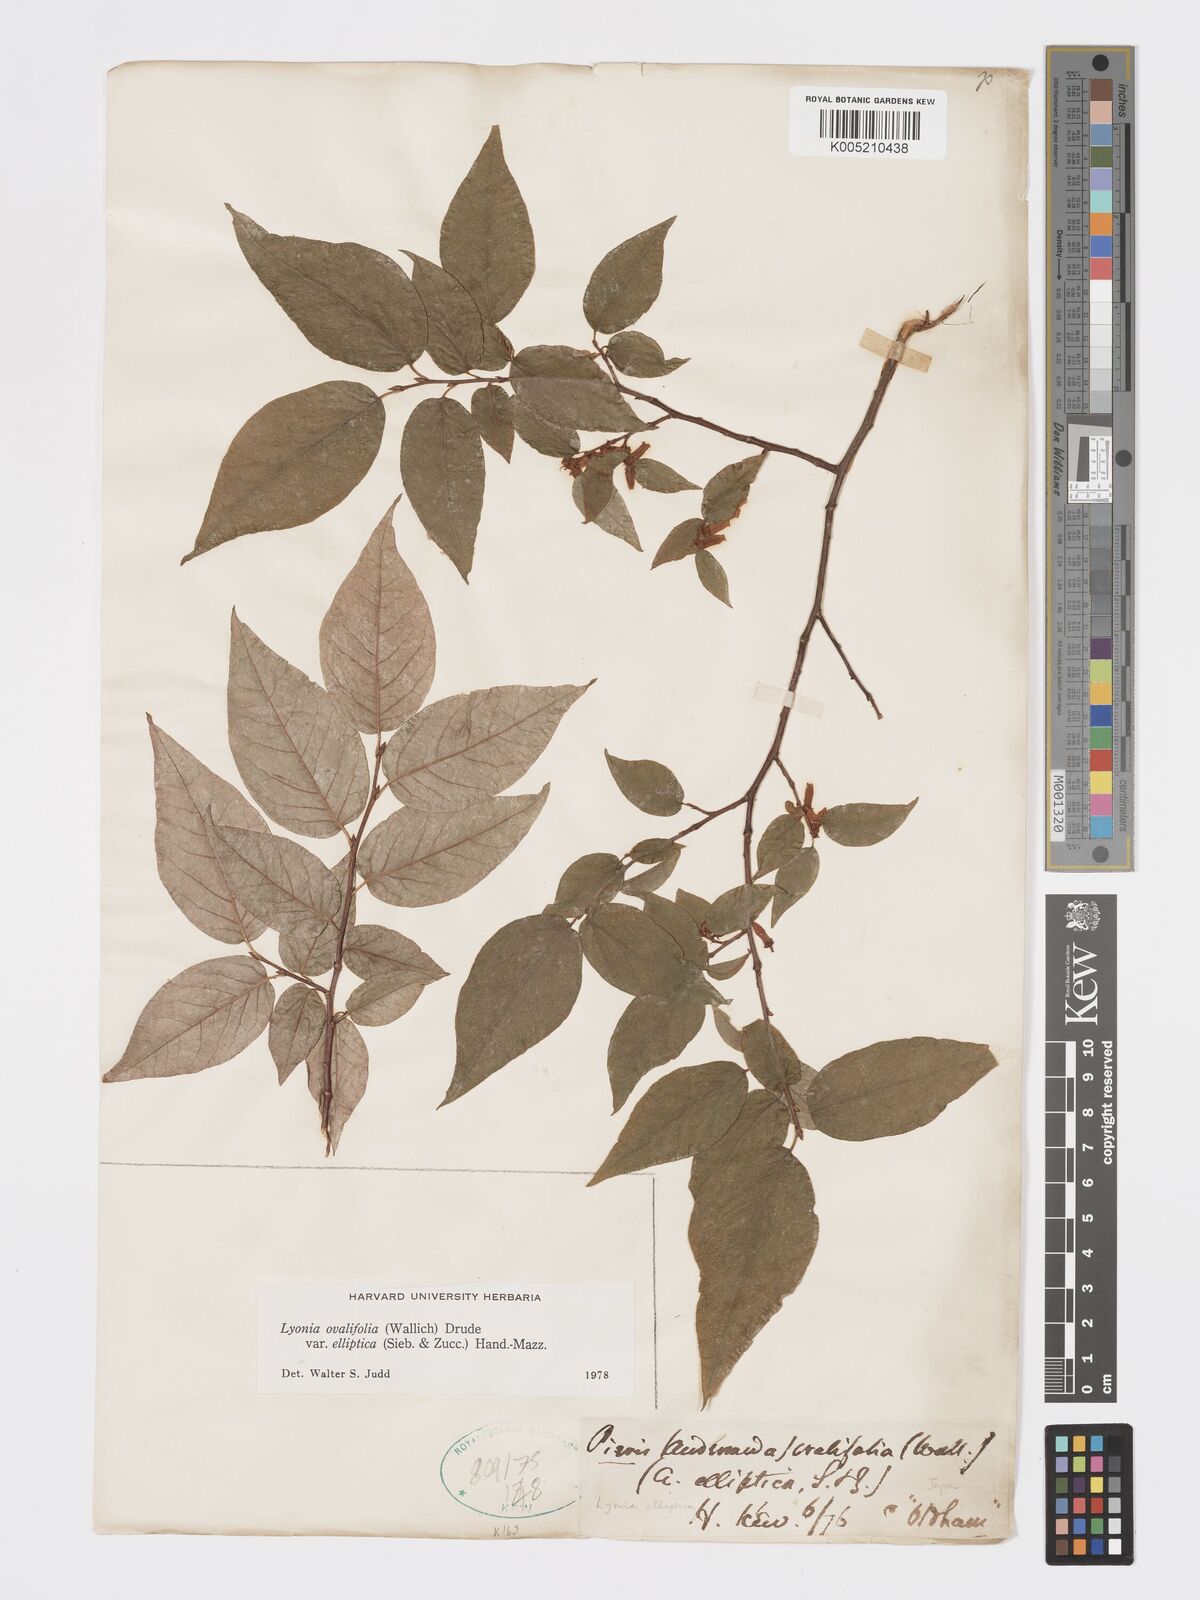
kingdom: Plantae
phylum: Tracheophyta
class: Magnoliopsida
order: Ericales
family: Ericaceae
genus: Lyonia
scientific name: Lyonia elliptica
